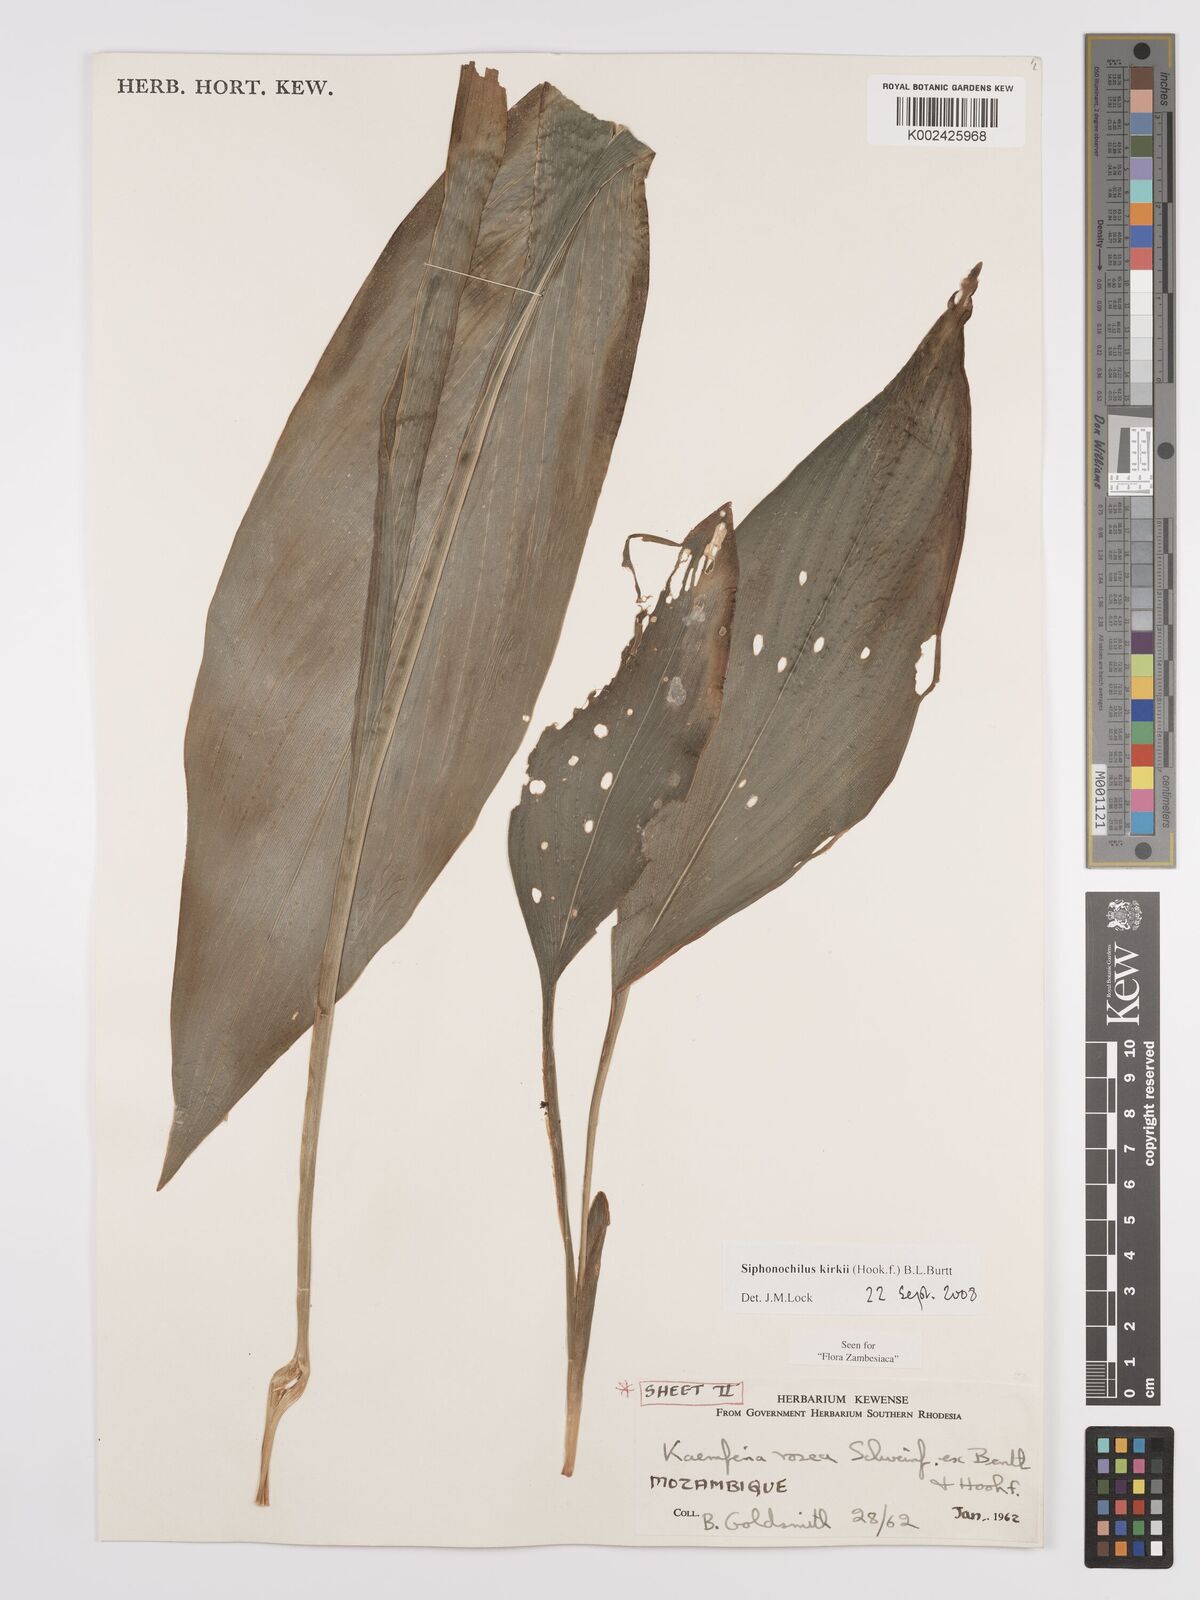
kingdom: Plantae
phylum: Tracheophyta
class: Liliopsida
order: Zingiberales
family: Zingiberaceae
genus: Siphonochilus
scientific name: Siphonochilus kirkii
